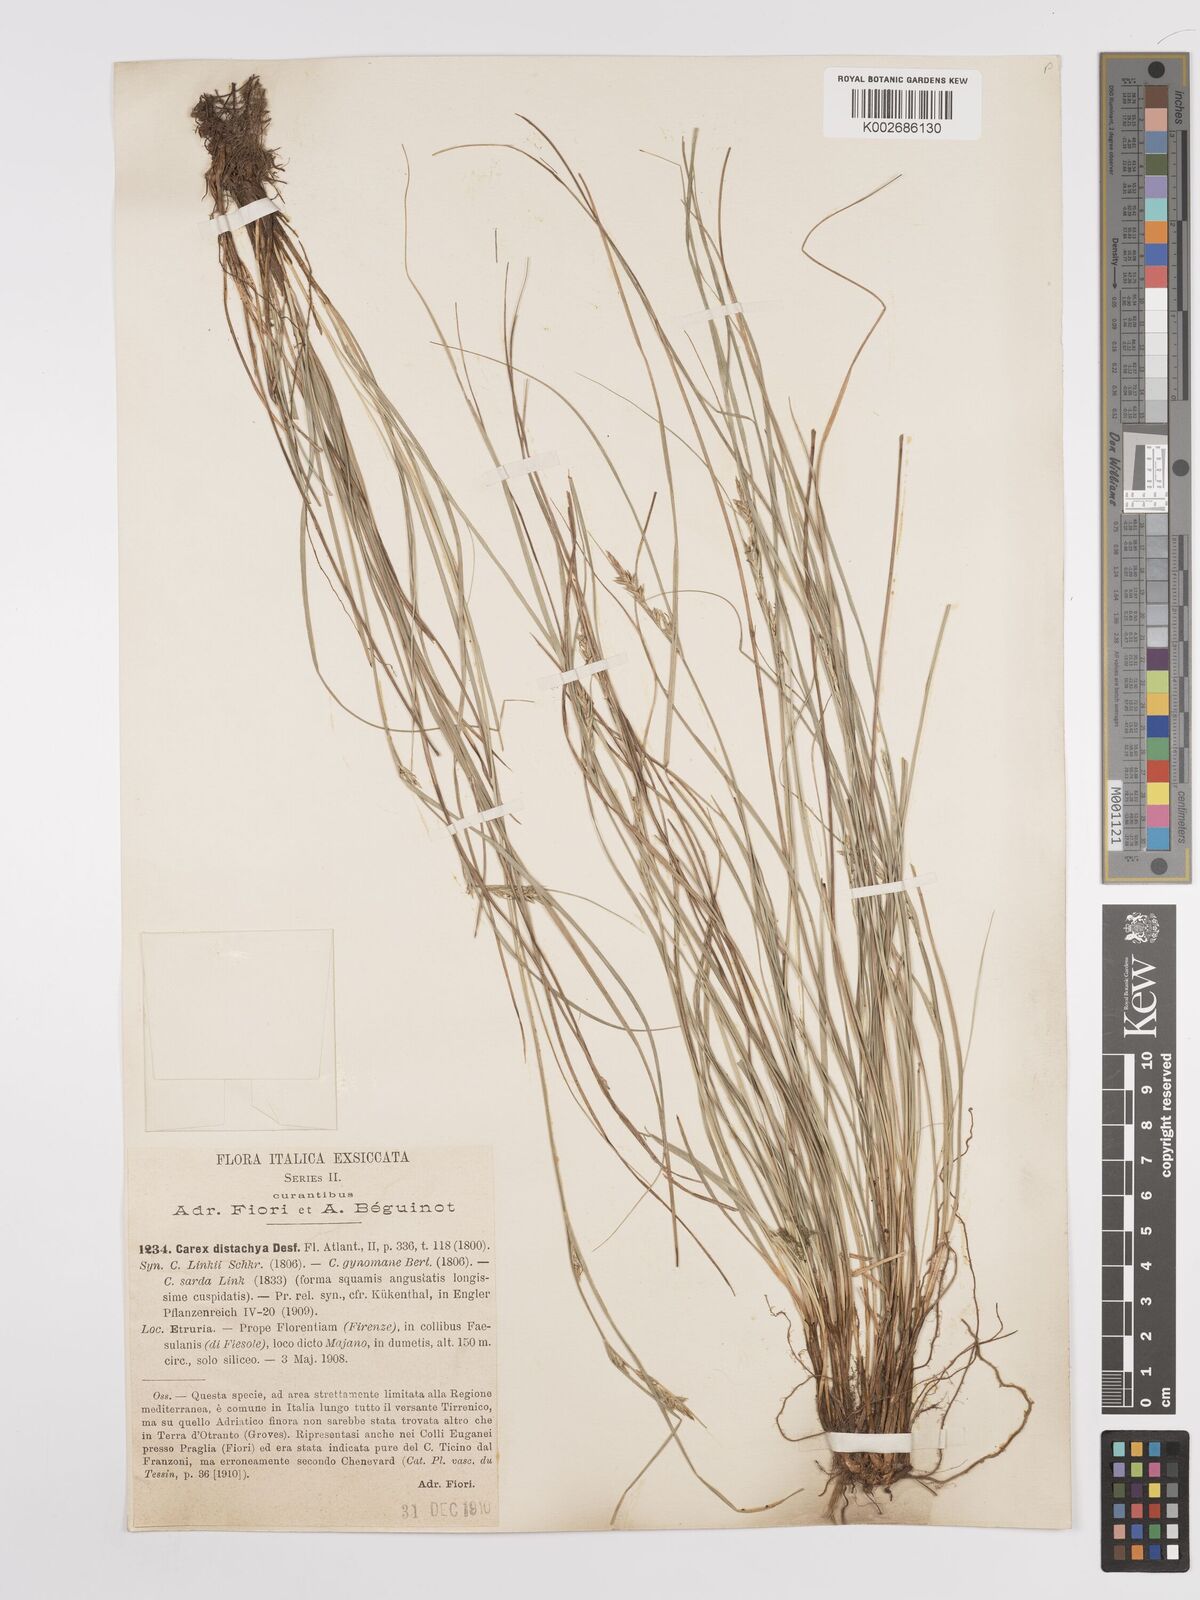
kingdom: Plantae
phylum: Tracheophyta
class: Liliopsida
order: Poales
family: Cyperaceae
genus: Carex
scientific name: Carex distachya
